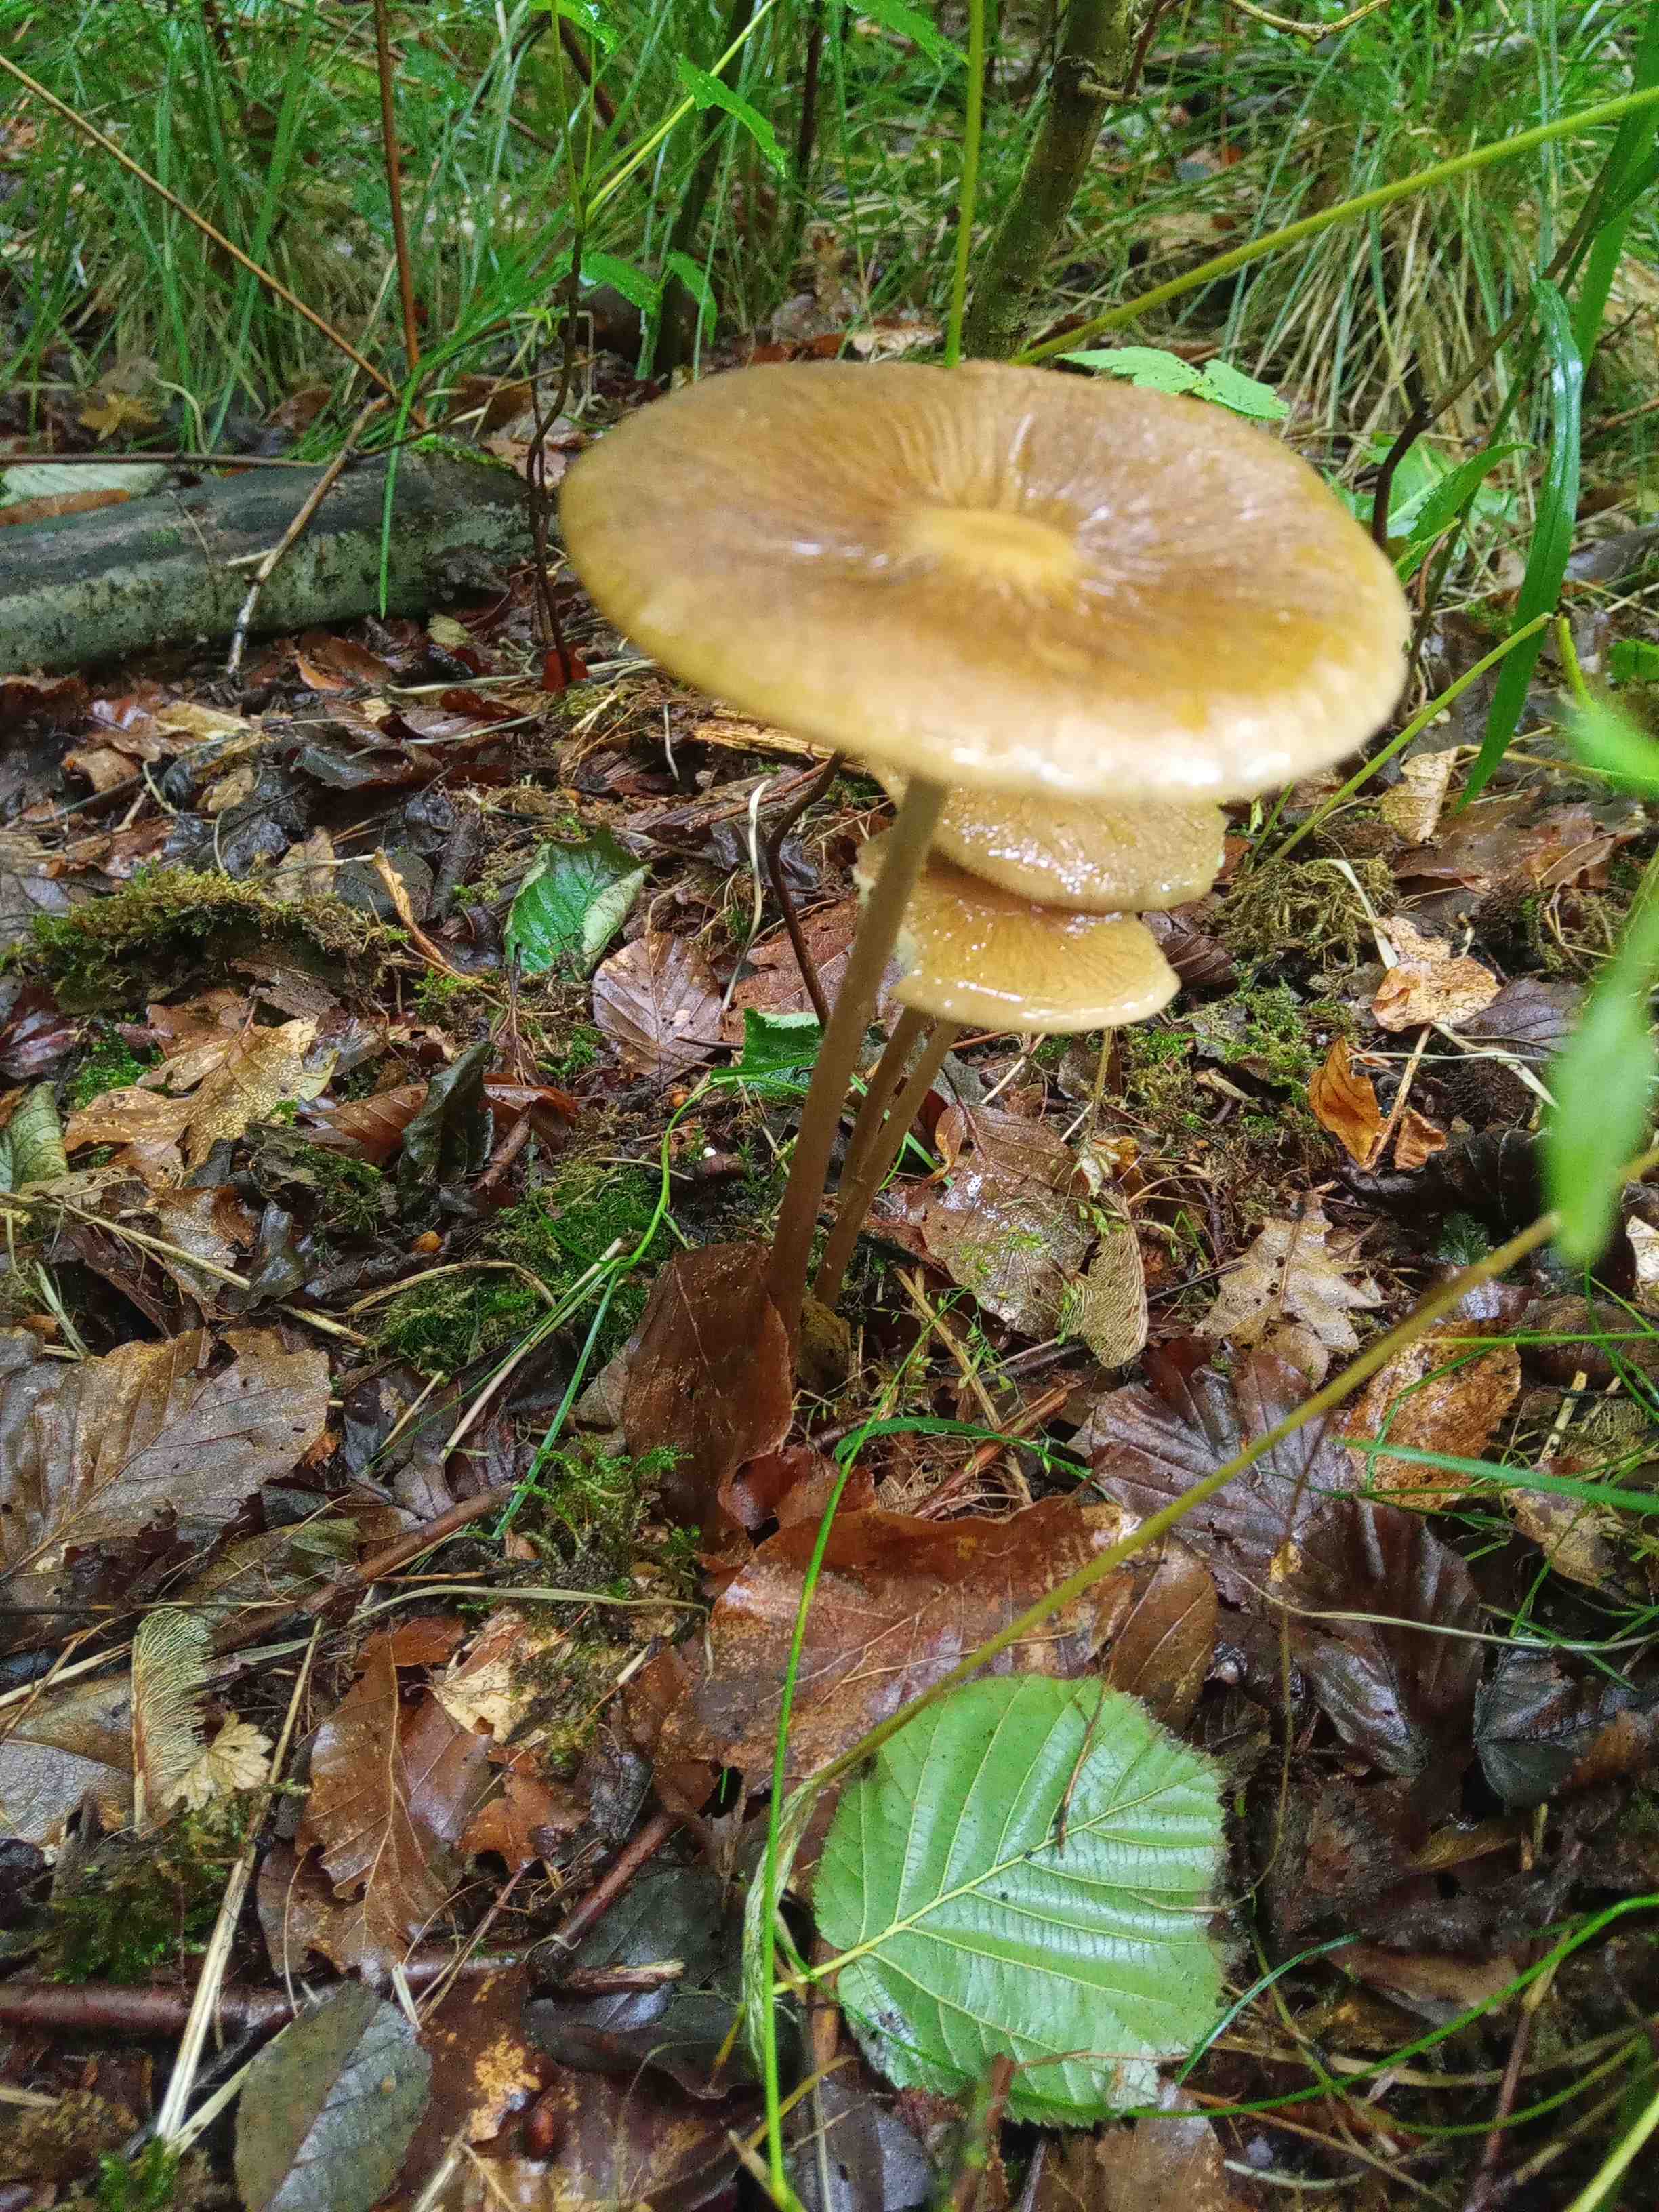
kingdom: Fungi
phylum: Basidiomycota
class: Agaricomycetes
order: Agaricales
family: Physalacriaceae
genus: Hymenopellis
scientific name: Hymenopellis radicata
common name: almindelig pælerodshat
